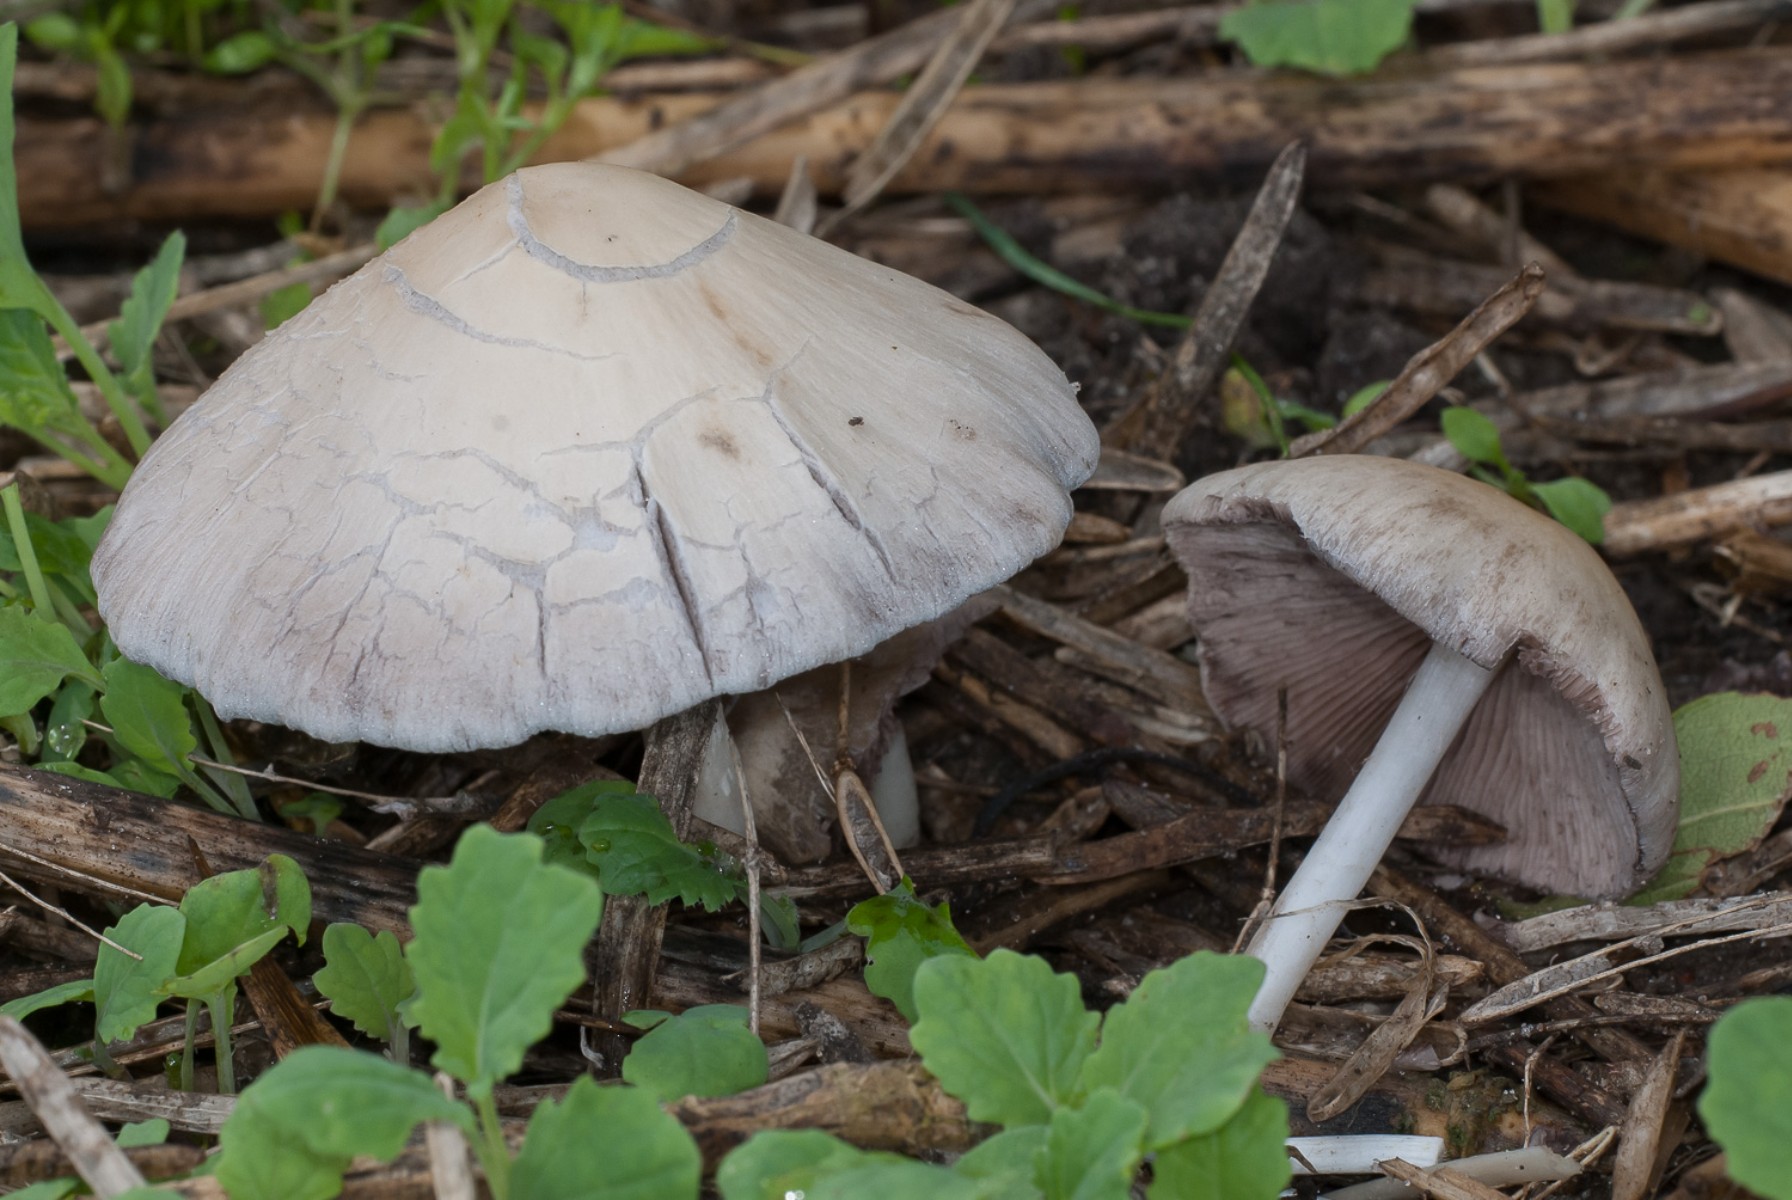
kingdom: Fungi
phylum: Basidiomycota
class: Agaricomycetes
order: Agaricales
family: Psathyrellaceae
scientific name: Psathyrellaceae
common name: mørkhatfamilien
